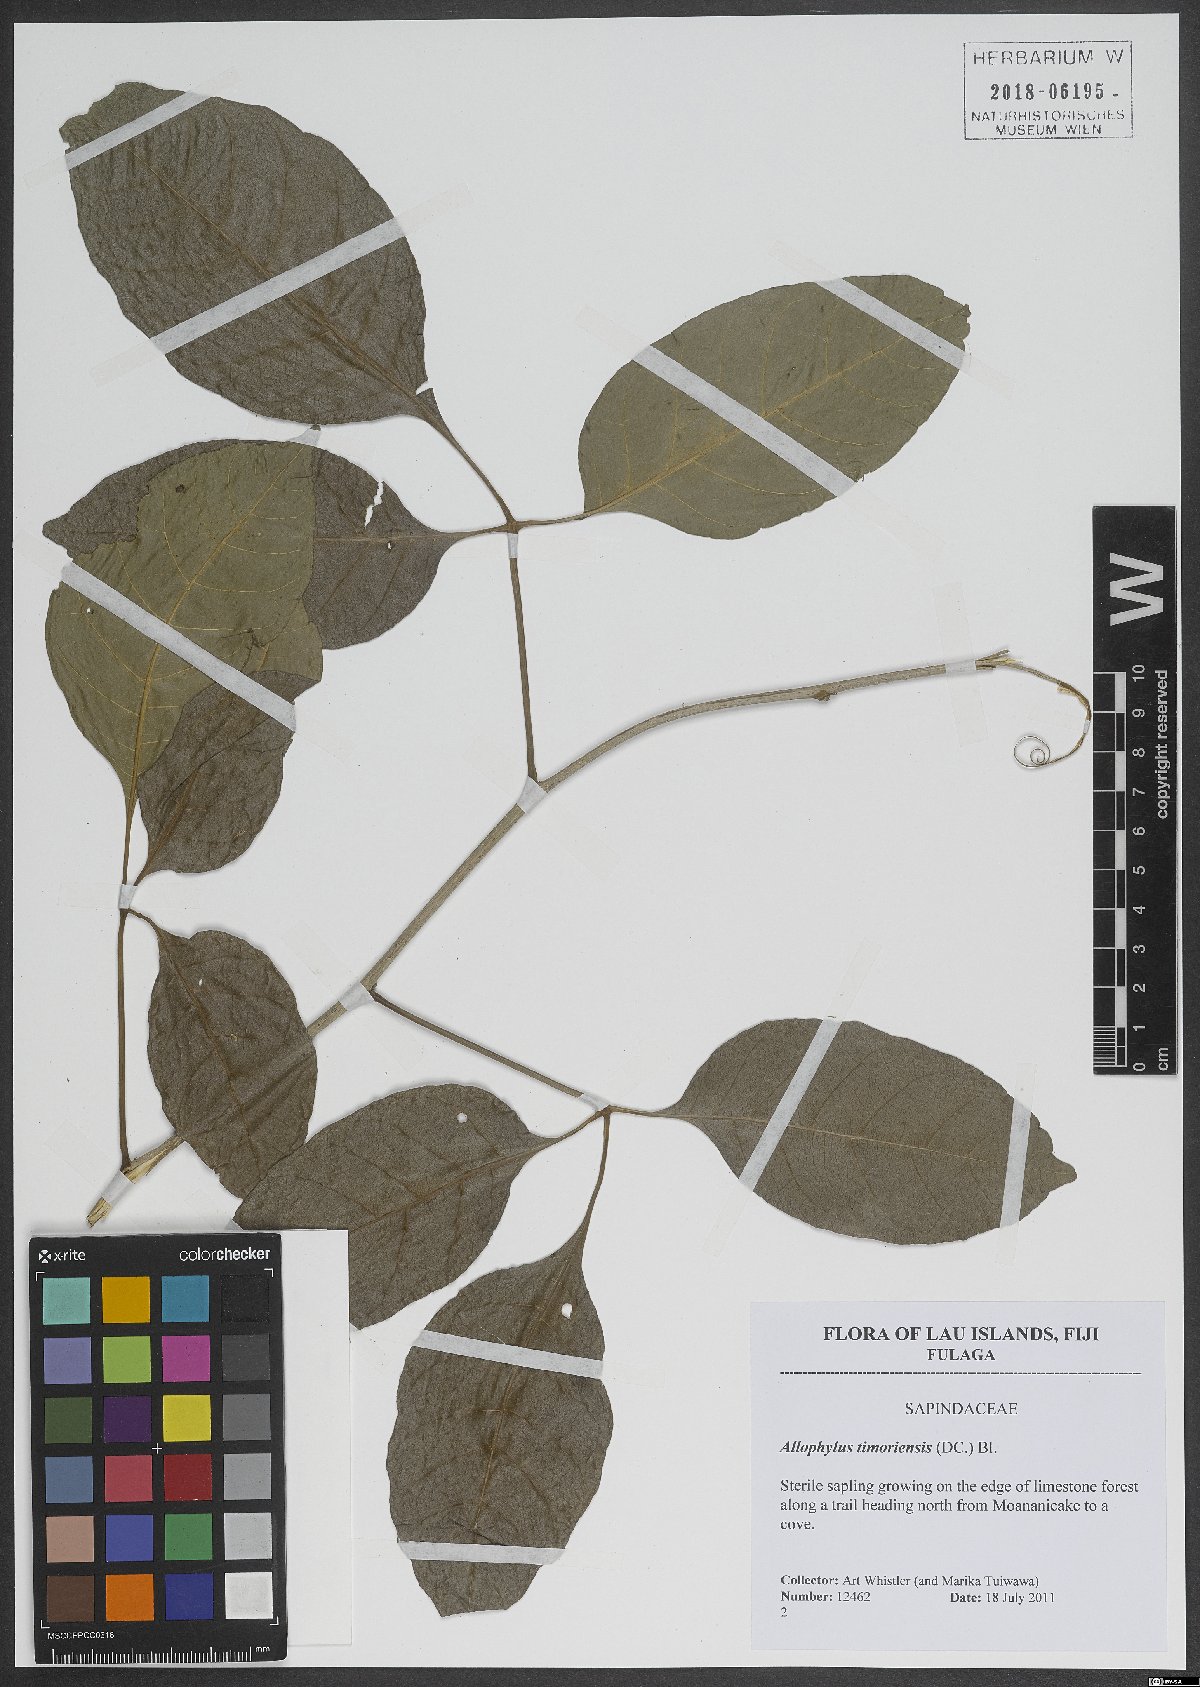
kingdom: Plantae
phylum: Tracheophyta
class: Magnoliopsida
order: Sapindales
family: Sapindaceae
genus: Allophylus
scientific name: Allophylus timorensis
